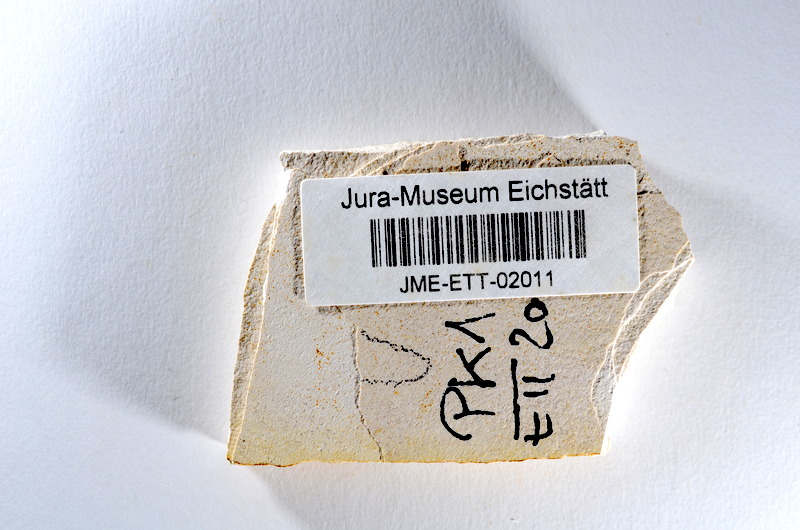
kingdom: Animalia
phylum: Chordata
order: Salmoniformes
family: Orthogonikleithridae
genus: Orthogonikleithrus
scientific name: Orthogonikleithrus hoelli
